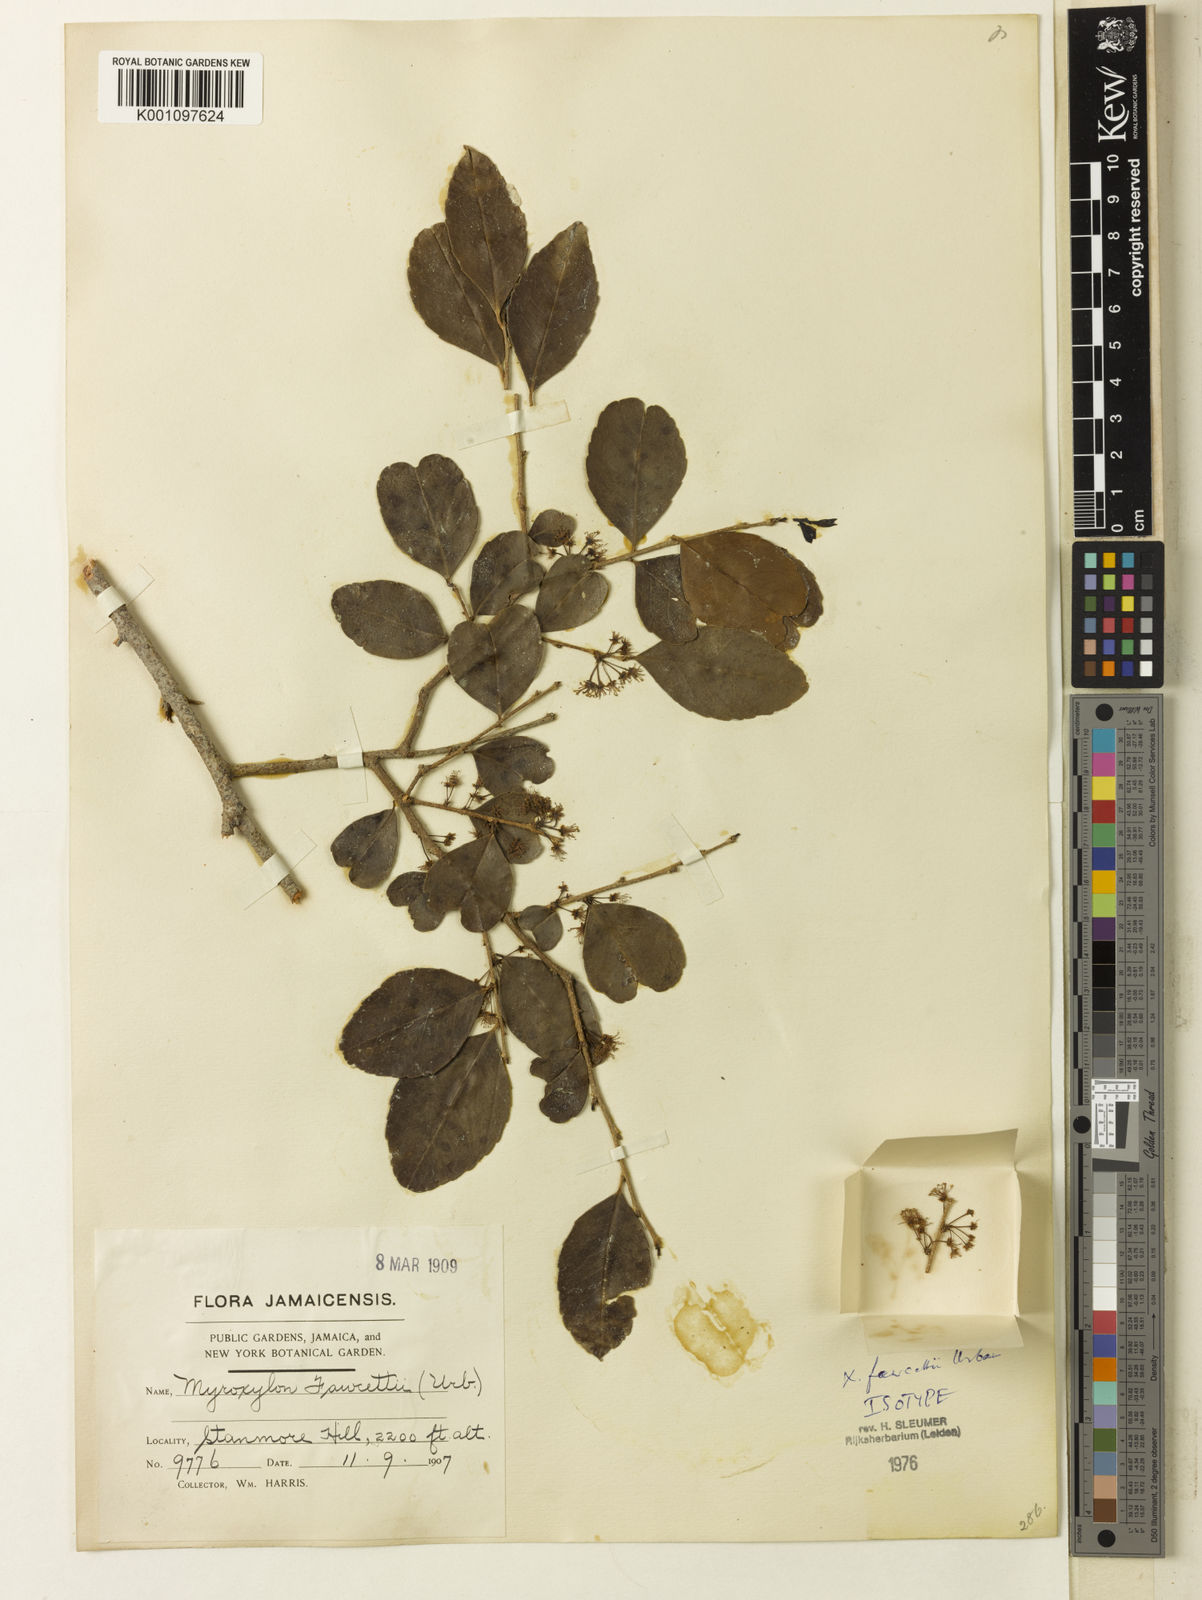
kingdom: Plantae
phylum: Tracheophyta
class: Magnoliopsida
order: Malpighiales
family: Salicaceae
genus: Xylosma
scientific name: Xylosma fawcettii
